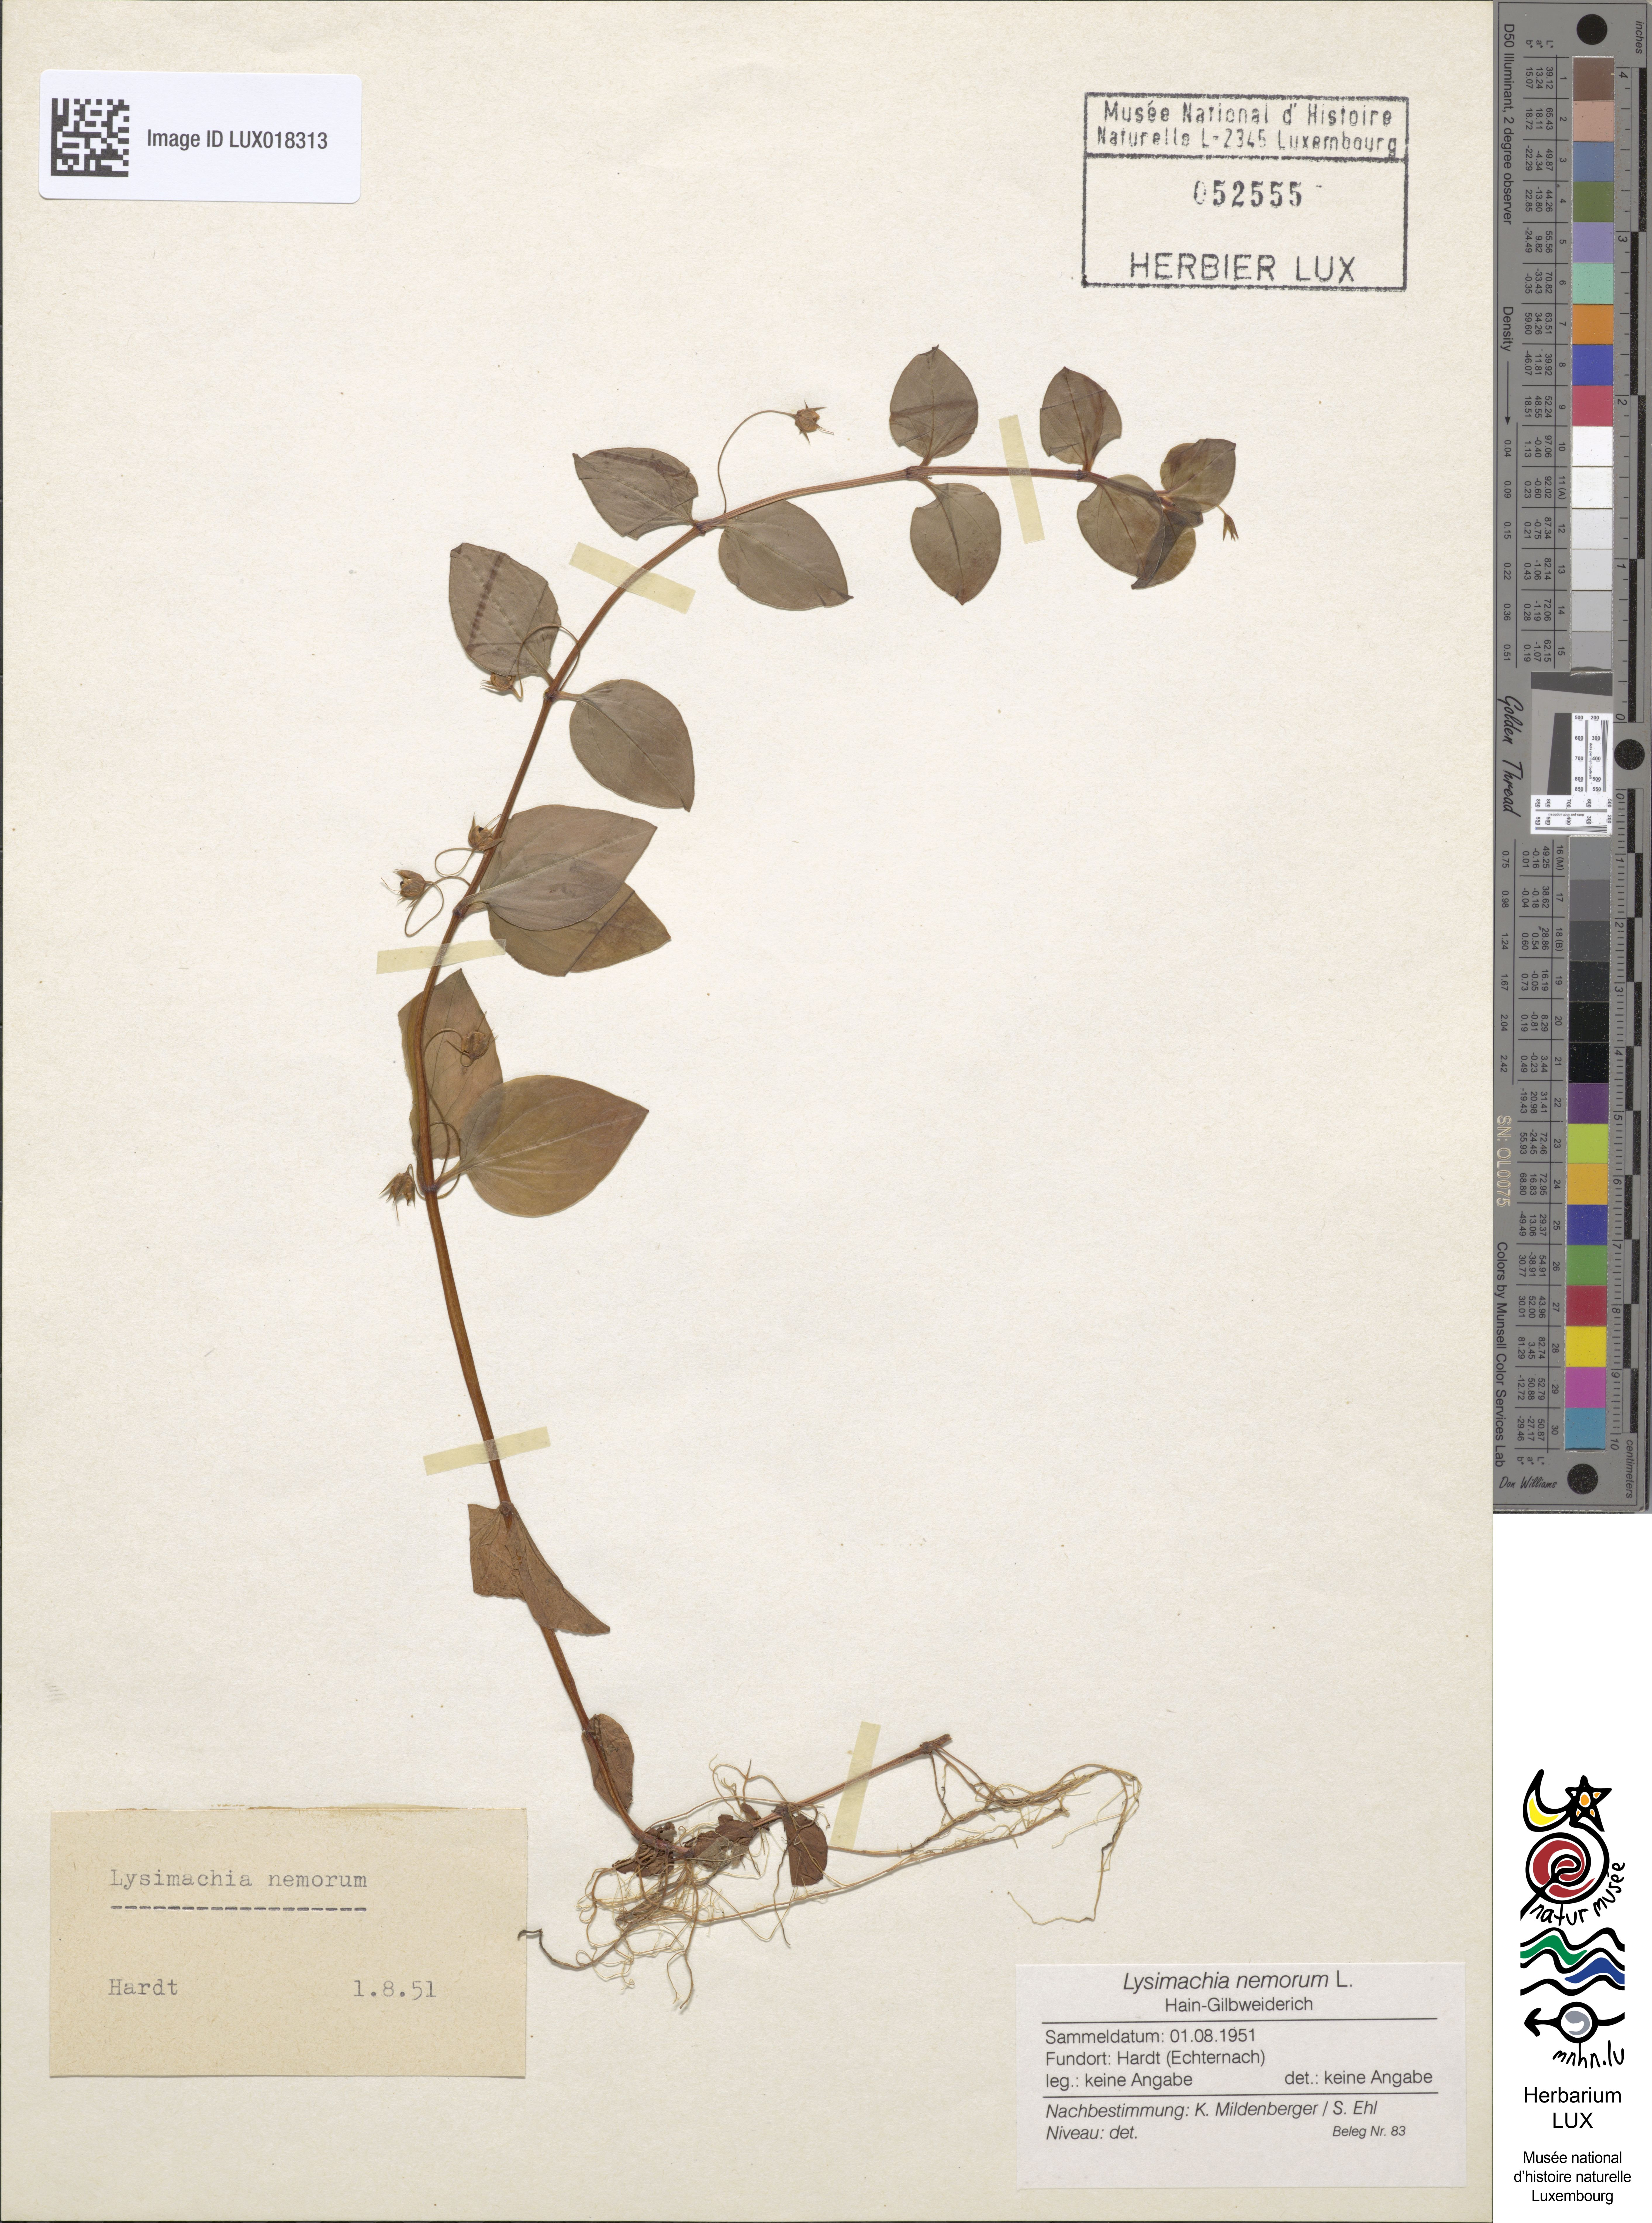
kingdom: Plantae
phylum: Tracheophyta
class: Magnoliopsida
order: Ericales
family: Primulaceae
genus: Lysimachia
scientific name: Lysimachia nemorum
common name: Yellow pimpernel
